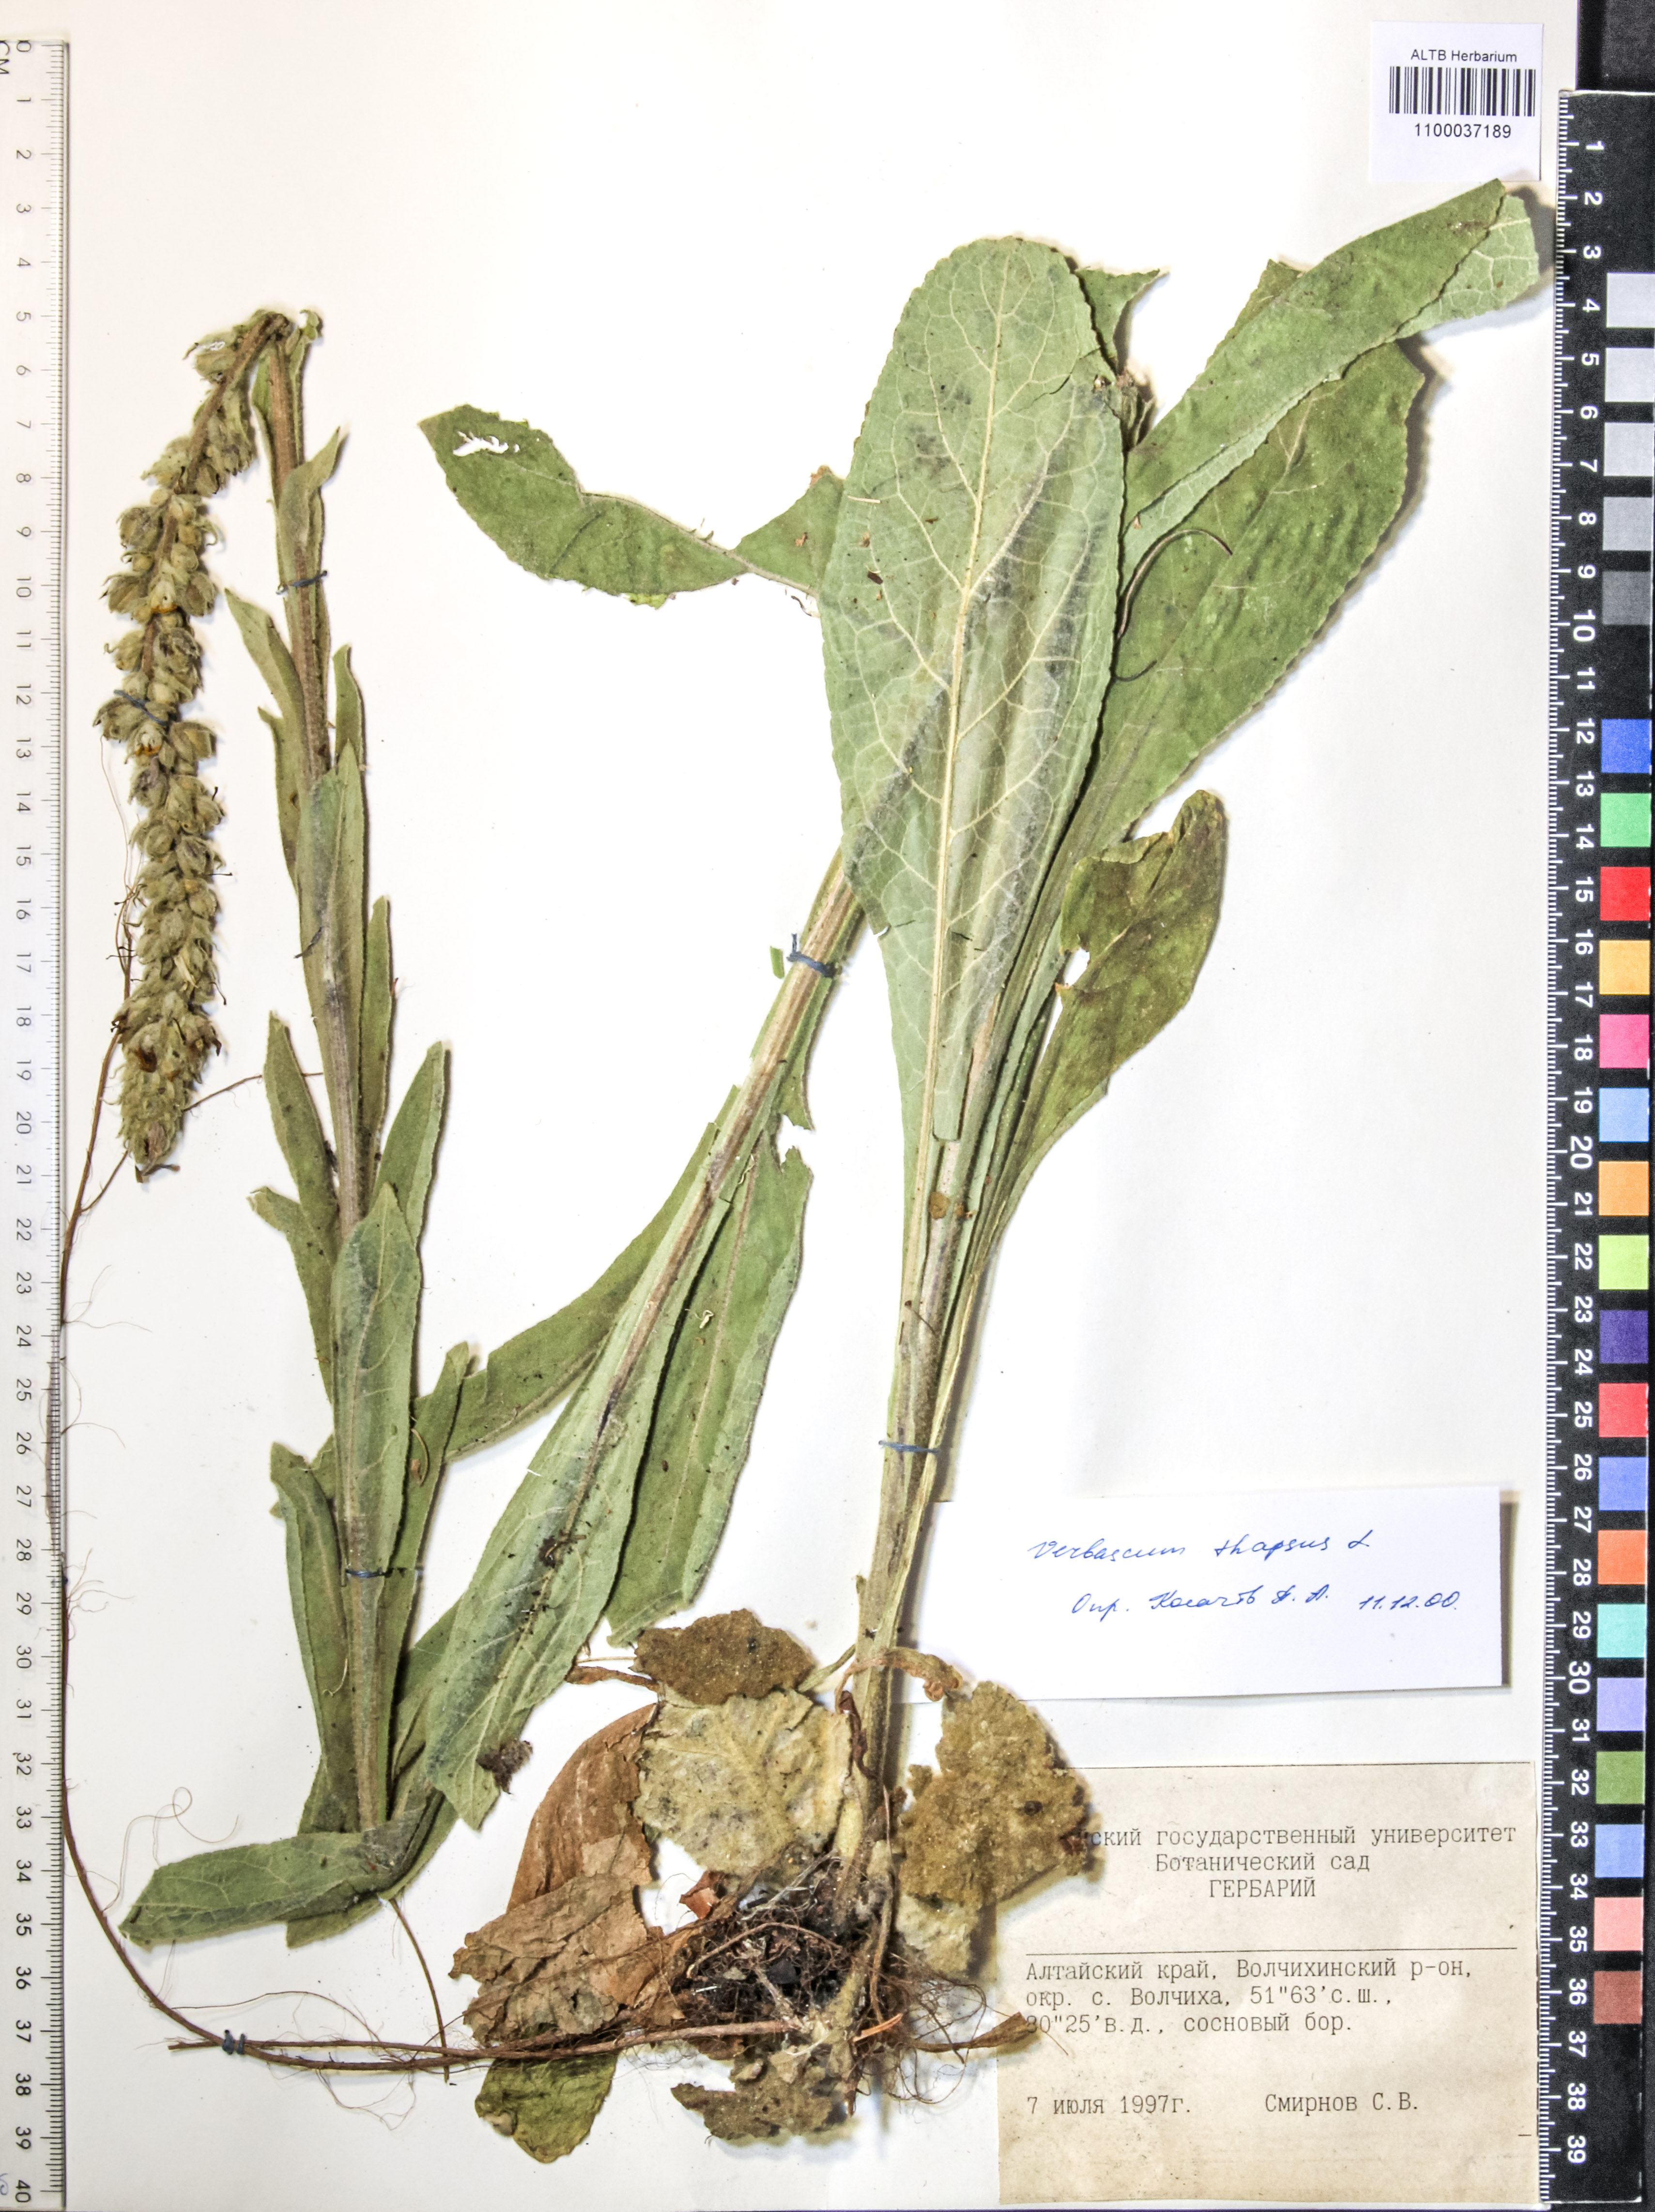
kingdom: Plantae
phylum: Tracheophyta
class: Magnoliopsida
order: Lamiales
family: Scrophulariaceae
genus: Verbascum
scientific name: Verbascum thapsus
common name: Common mullein
